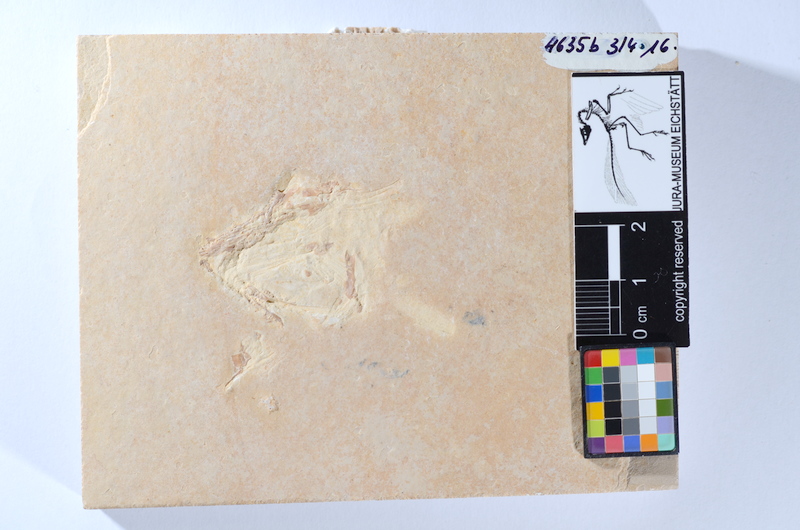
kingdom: Animalia
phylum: Chordata
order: Amiiformes
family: Caturidae
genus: Caturus
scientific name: Caturus
